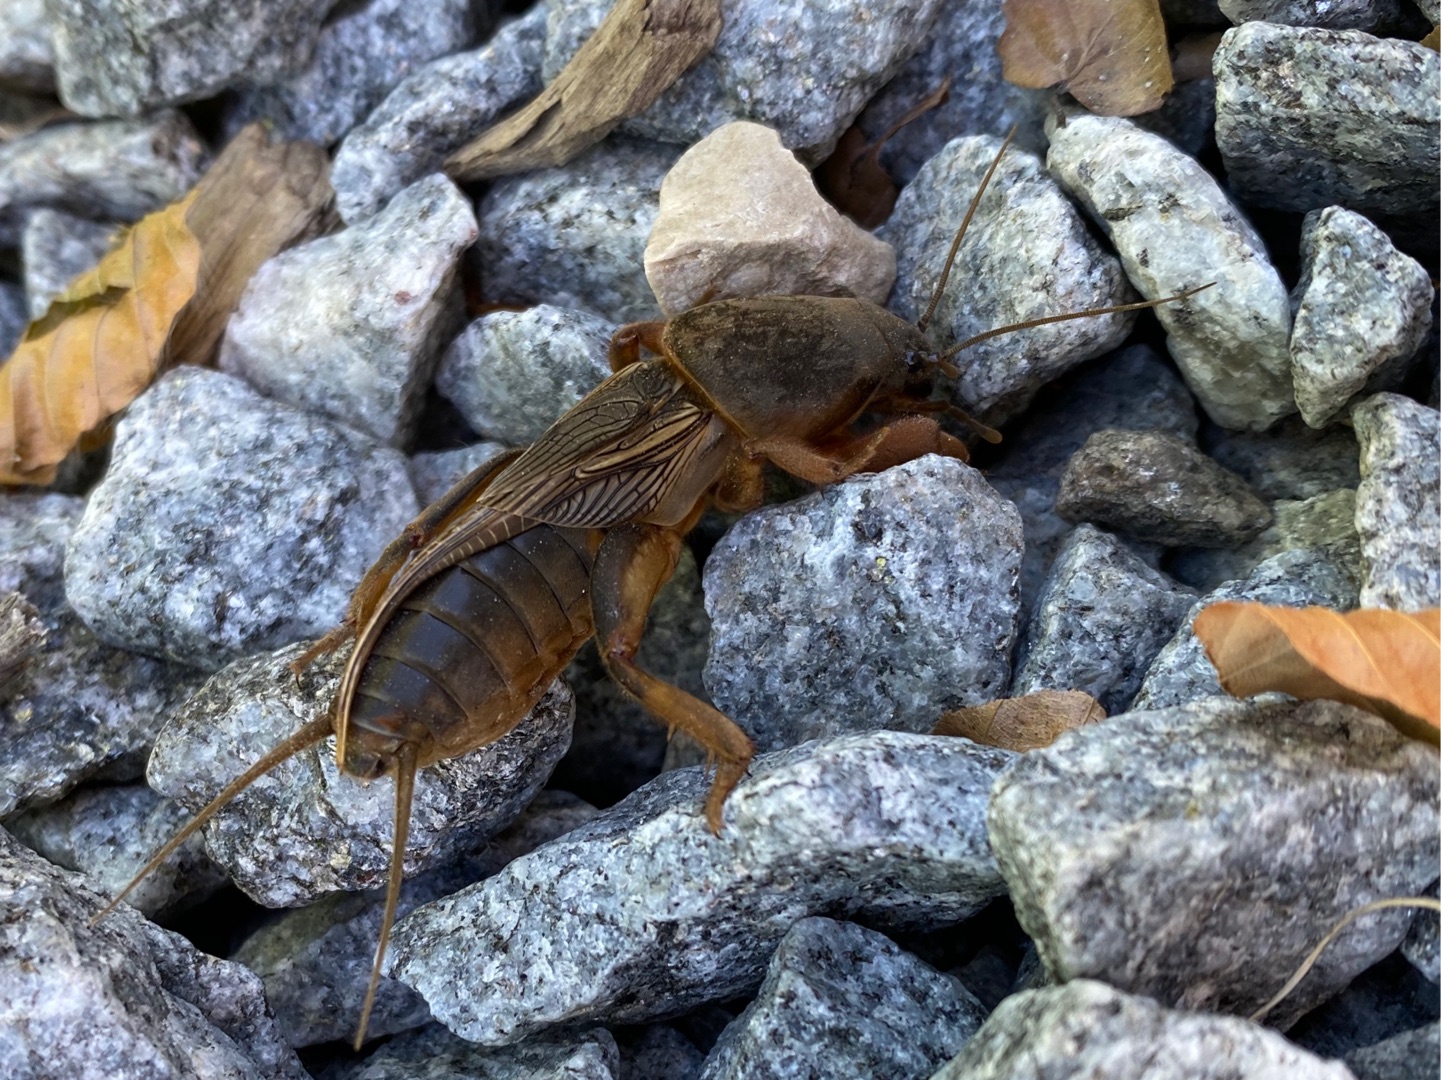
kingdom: Animalia
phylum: Arthropoda
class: Insecta
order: Orthoptera
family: Gryllotalpidae
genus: Gryllotalpa
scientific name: Gryllotalpa gryllotalpa
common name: Jordkrebs
